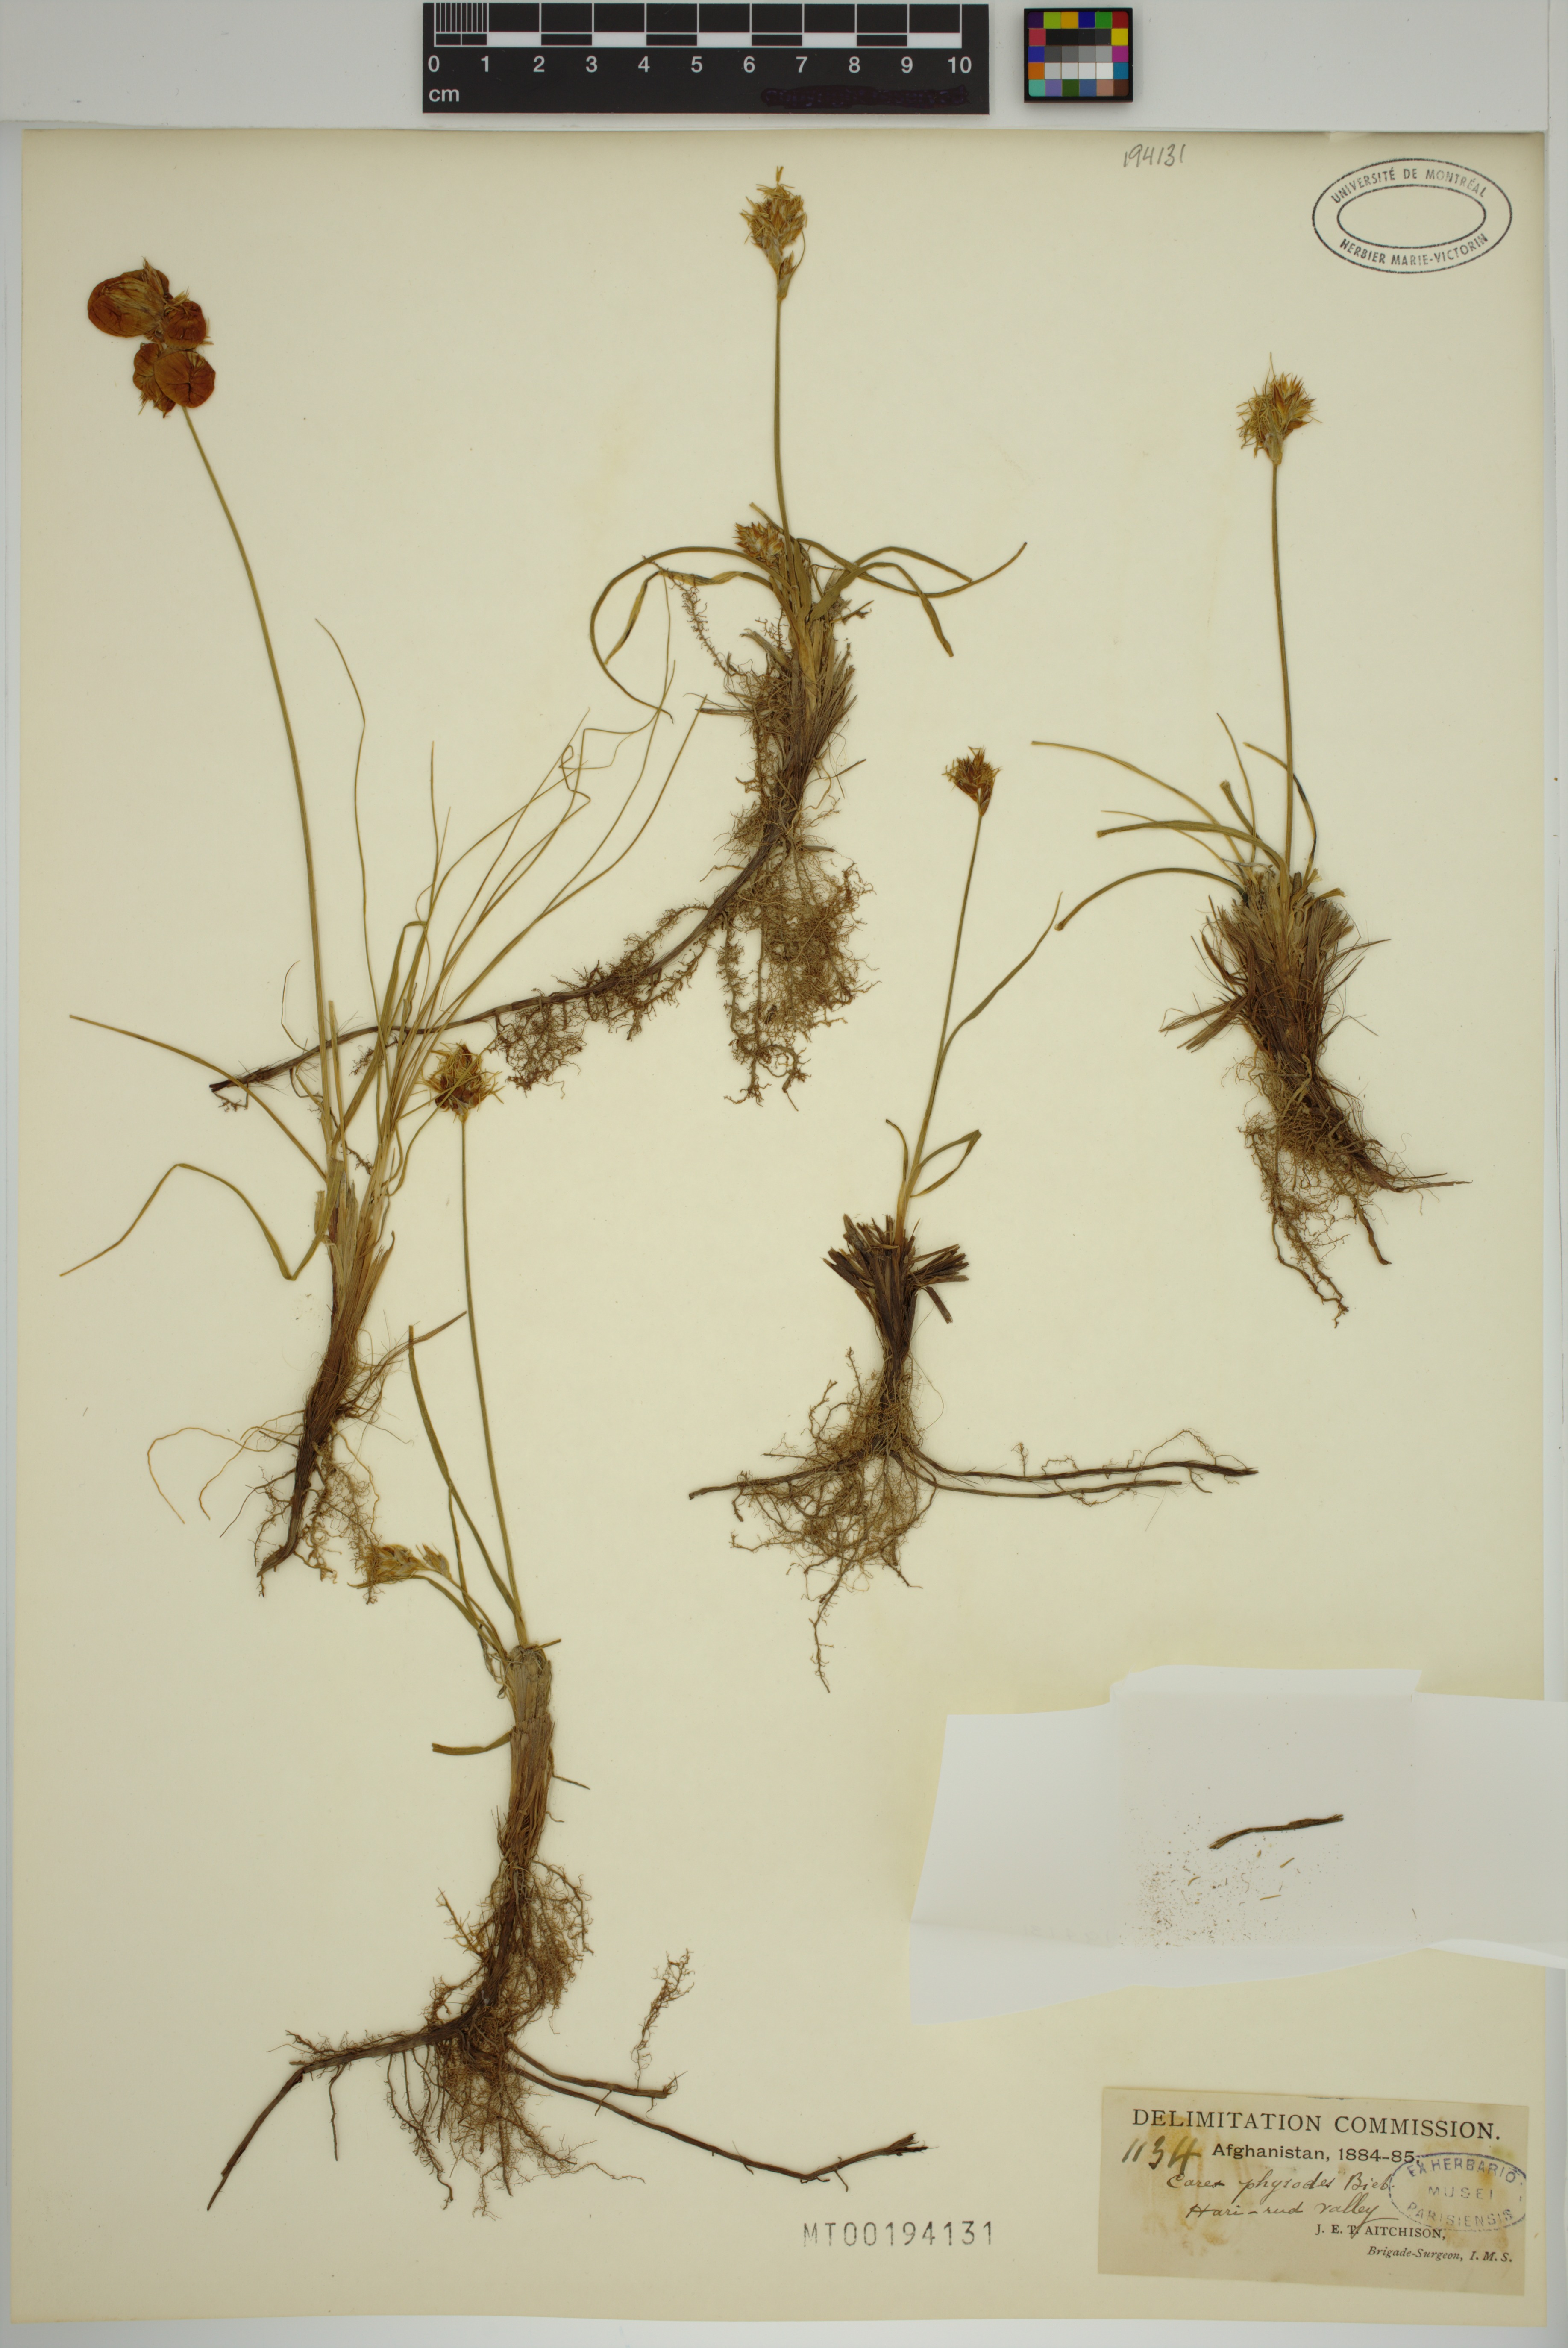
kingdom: Plantae
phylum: Tracheophyta
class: Liliopsida
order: Poales
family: Cyperaceae
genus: Carex
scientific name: Carex physodes
